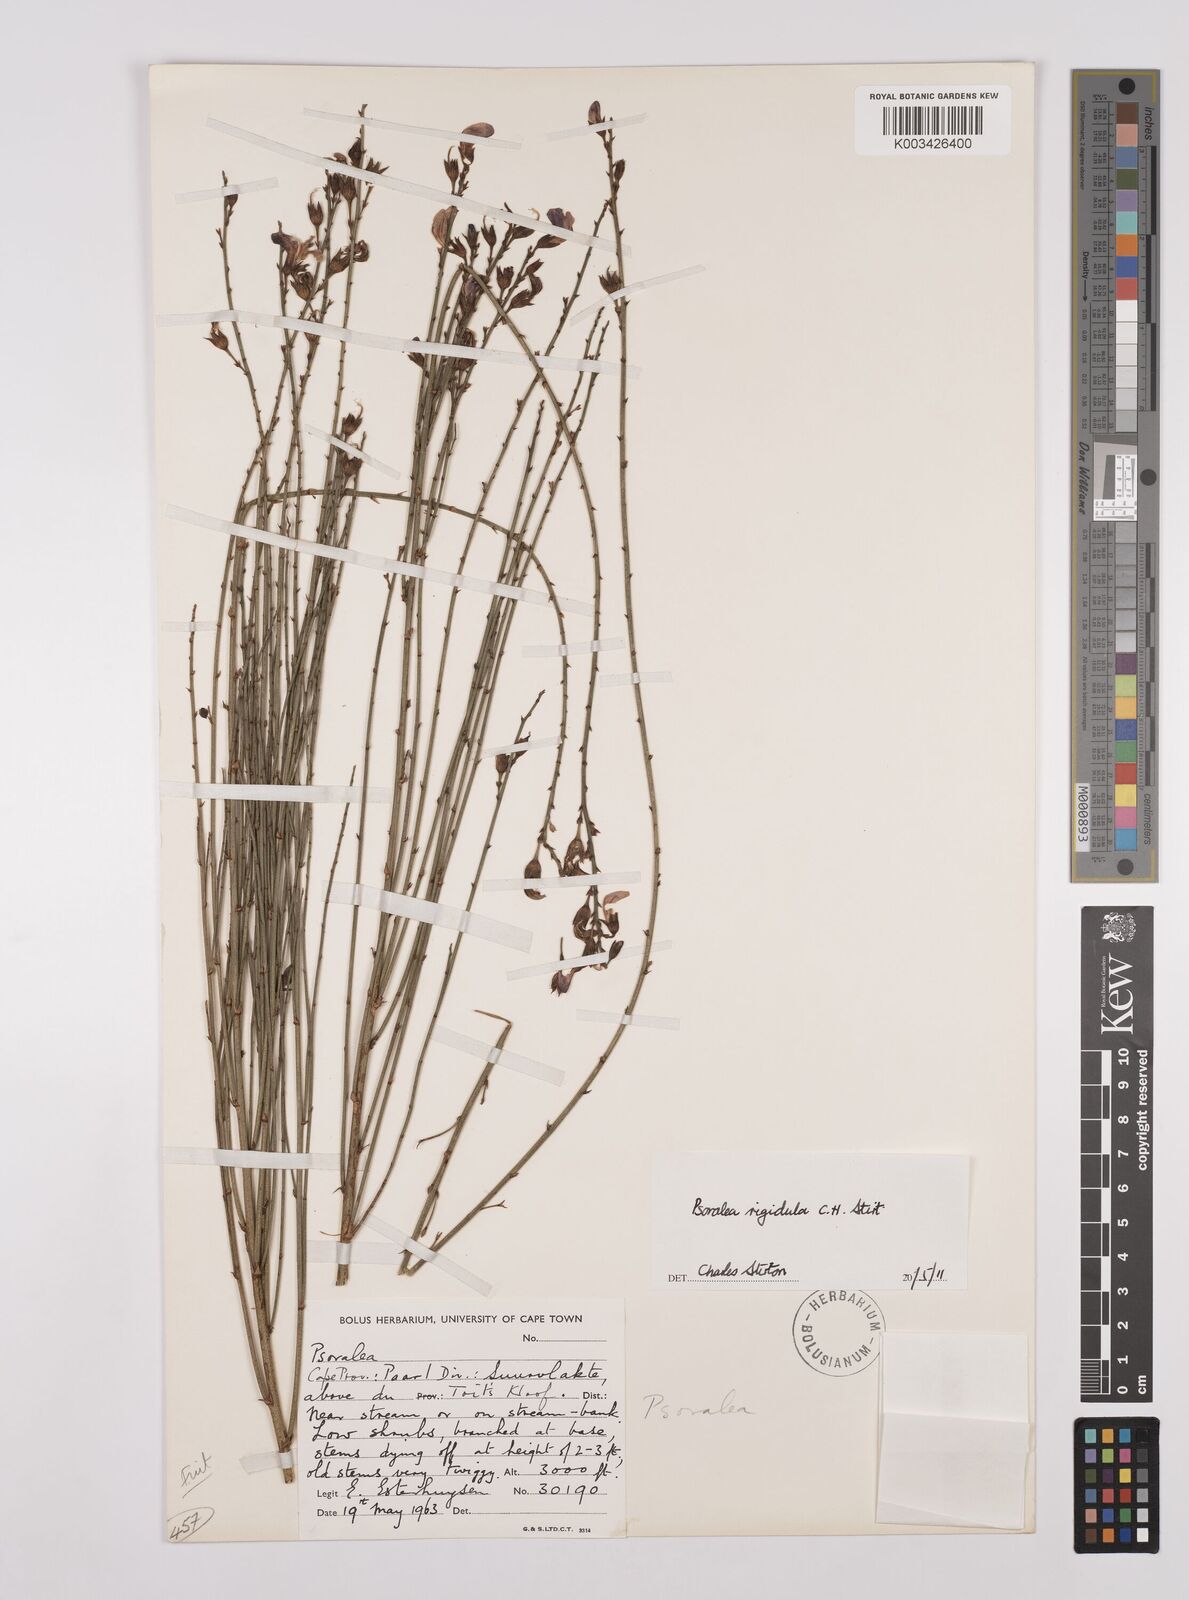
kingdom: Plantae
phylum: Tracheophyta
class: Magnoliopsida
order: Fabales
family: Fabaceae
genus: Psoralea
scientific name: Psoralea rigidula
